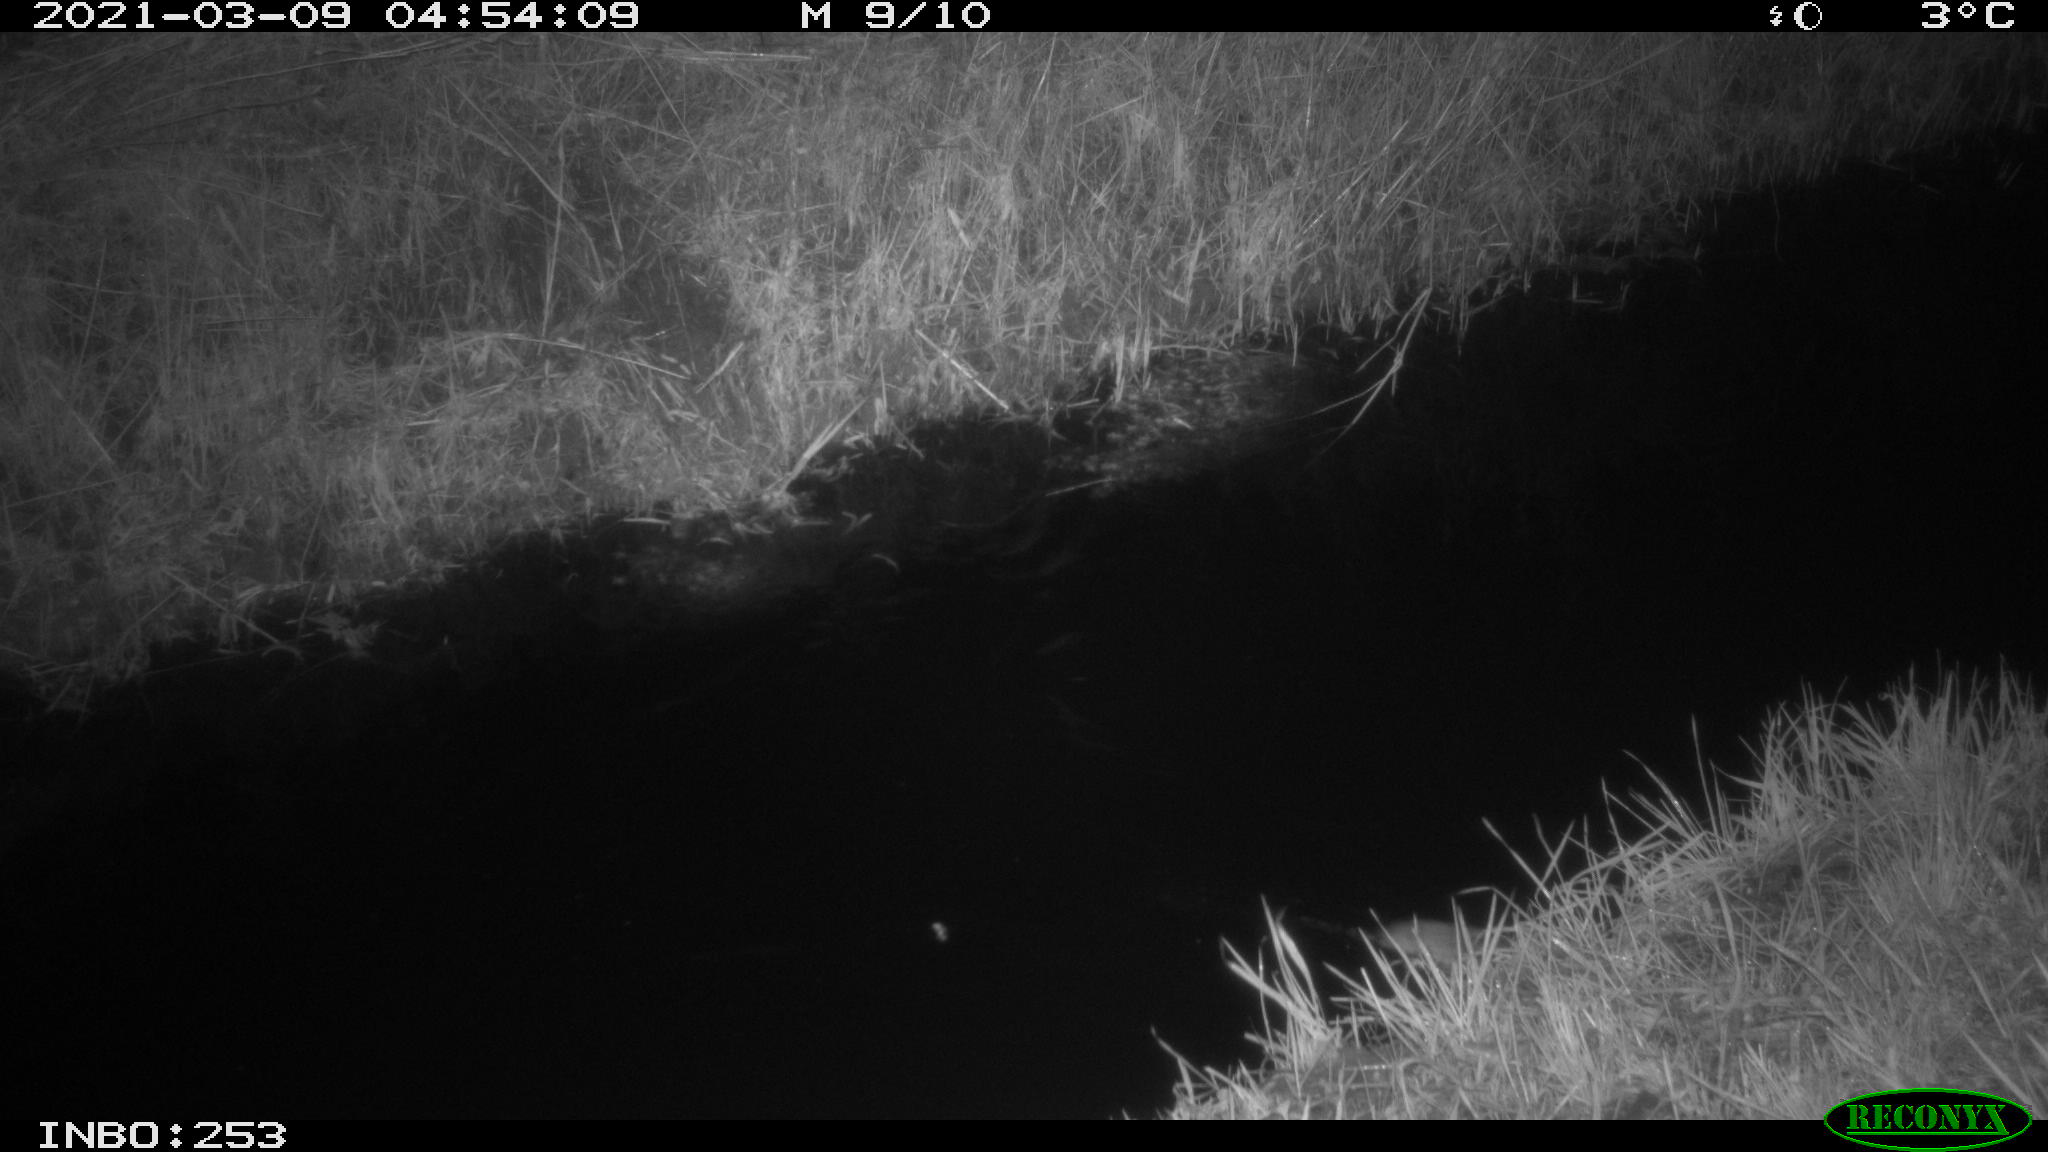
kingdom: Animalia
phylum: Chordata
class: Mammalia
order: Rodentia
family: Muridae
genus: Rattus
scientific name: Rattus norvegicus
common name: Brown rat
